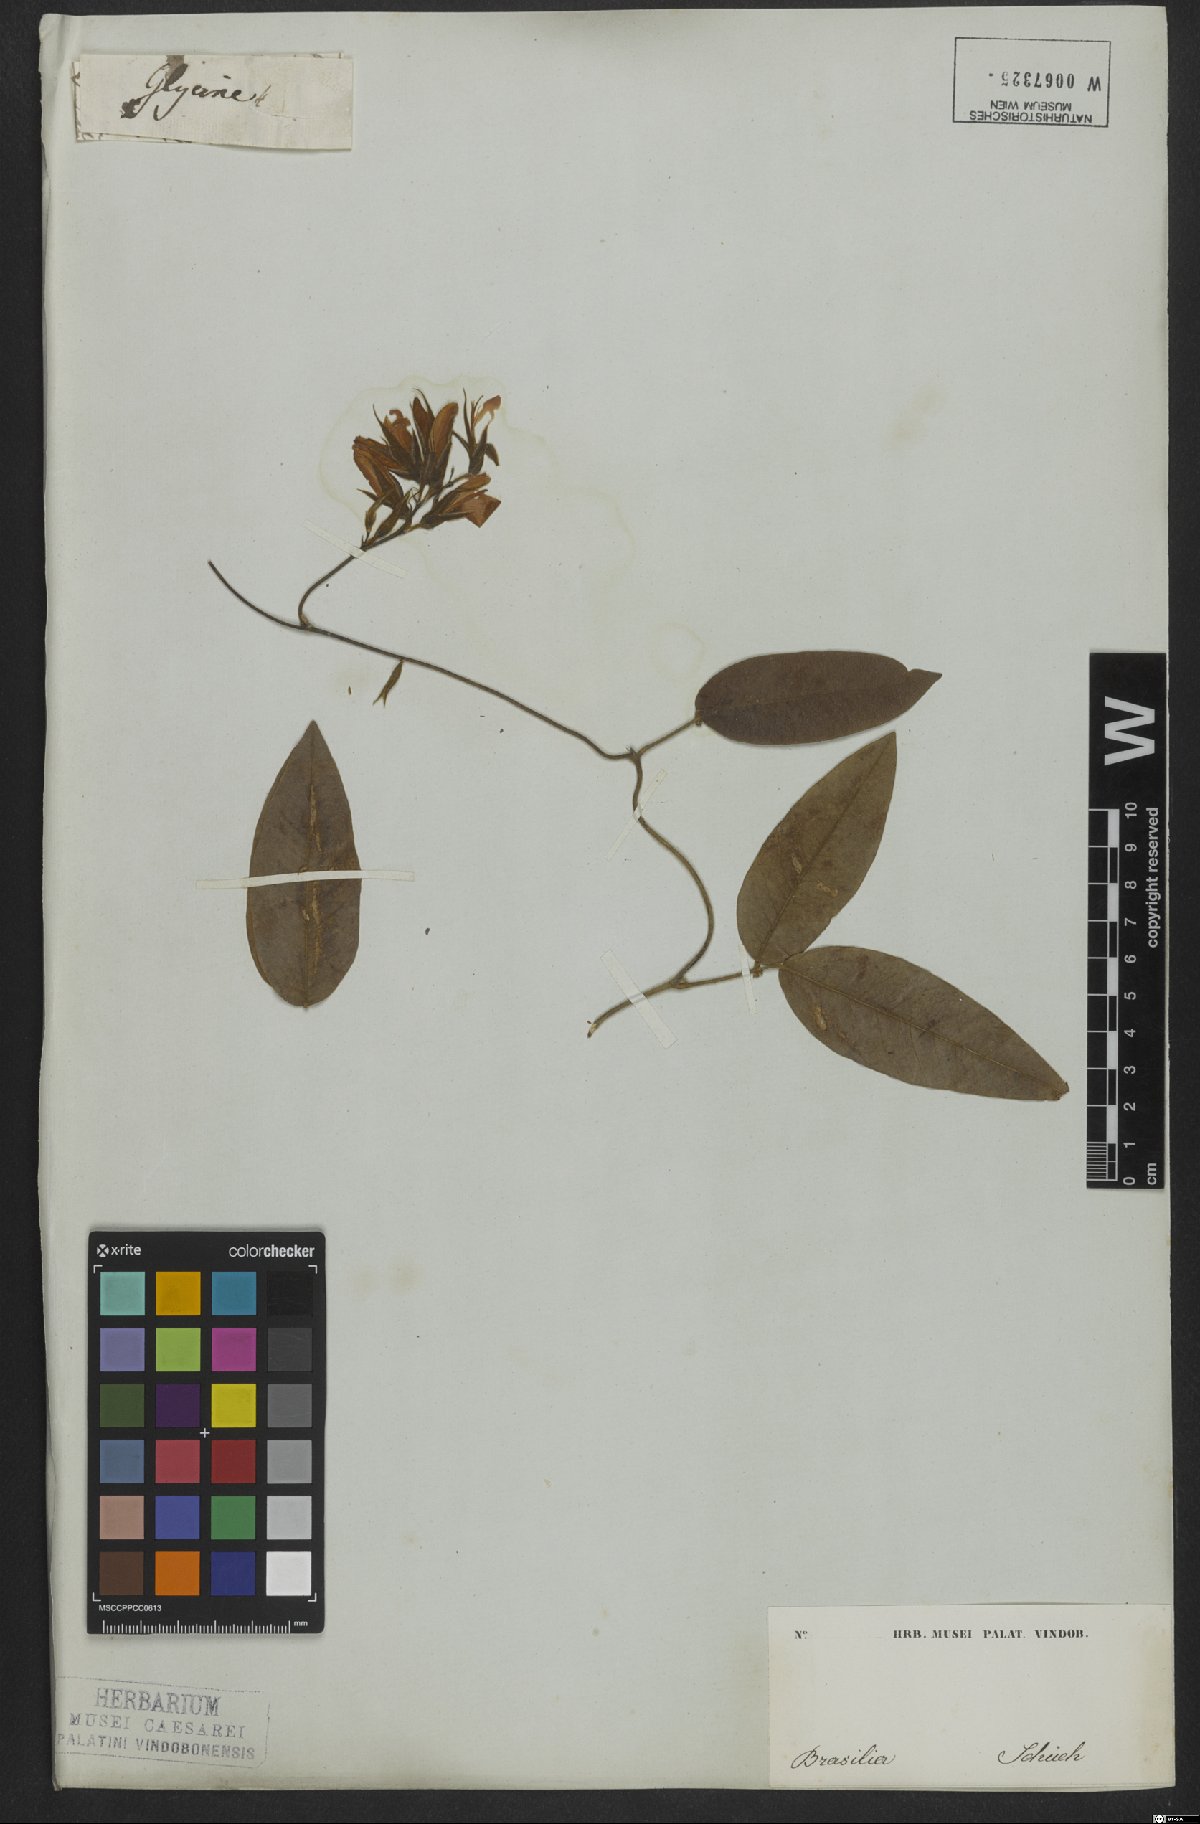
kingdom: Plantae
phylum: Tracheophyta
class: Magnoliopsida
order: Fabales
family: Fabaceae
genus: Betencourtia
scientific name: Betencourtia scarlatina
